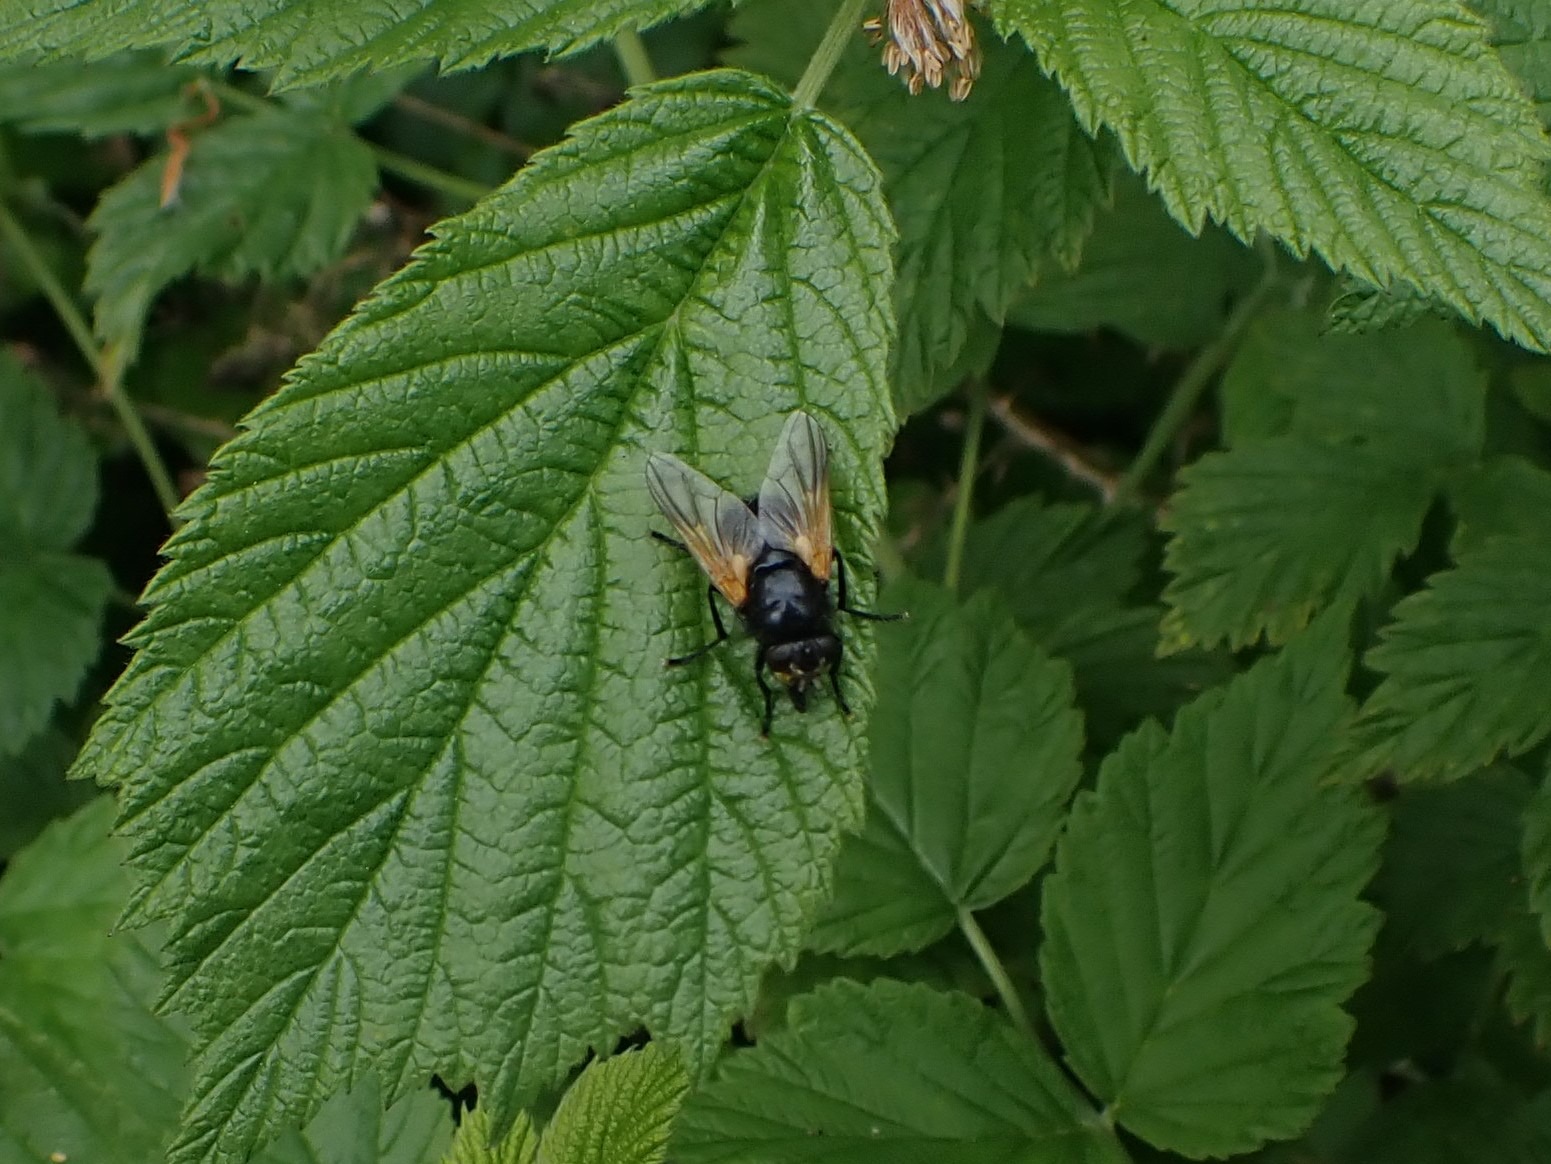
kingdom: Animalia
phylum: Arthropoda
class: Insecta
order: Diptera
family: Muscidae
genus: Mesembrina
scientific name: Mesembrina meridiana
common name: Gulvinget flue
